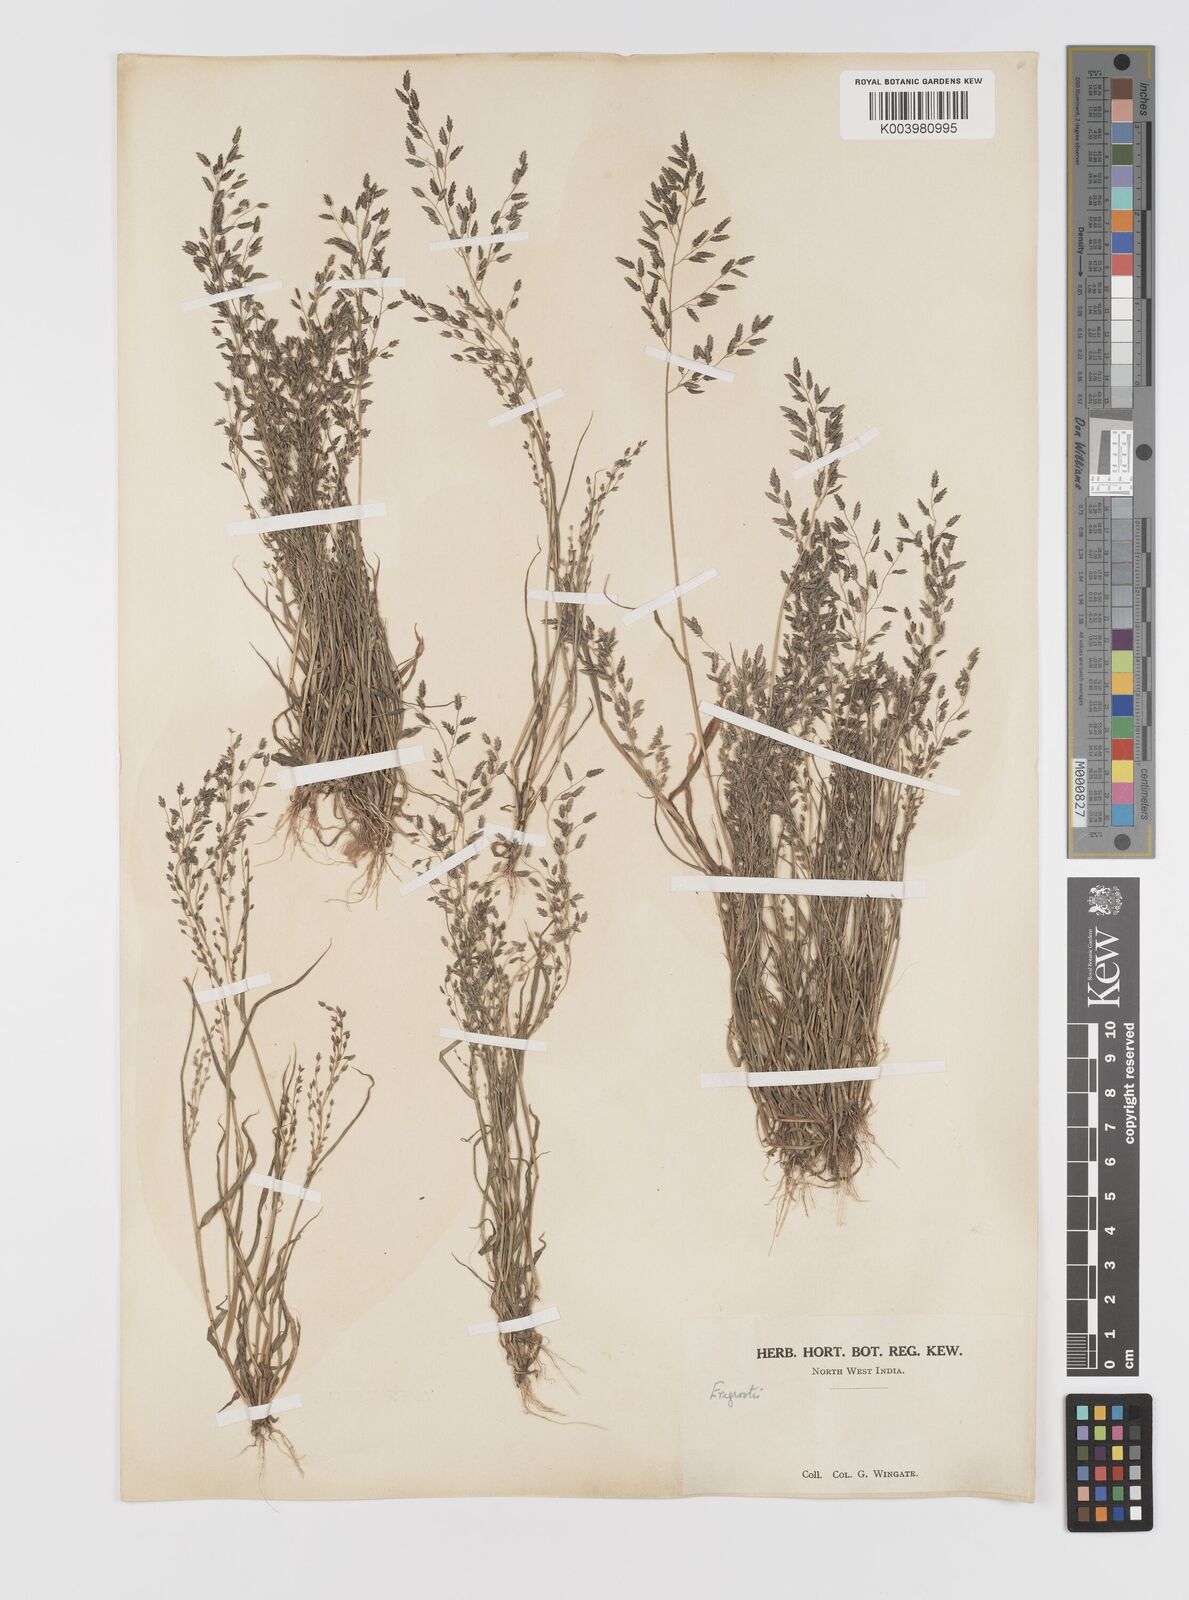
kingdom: Plantae
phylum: Tracheophyta
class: Liliopsida
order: Poales
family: Poaceae
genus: Eragrostis
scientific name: Eragrostis minor
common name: Small love-grass
